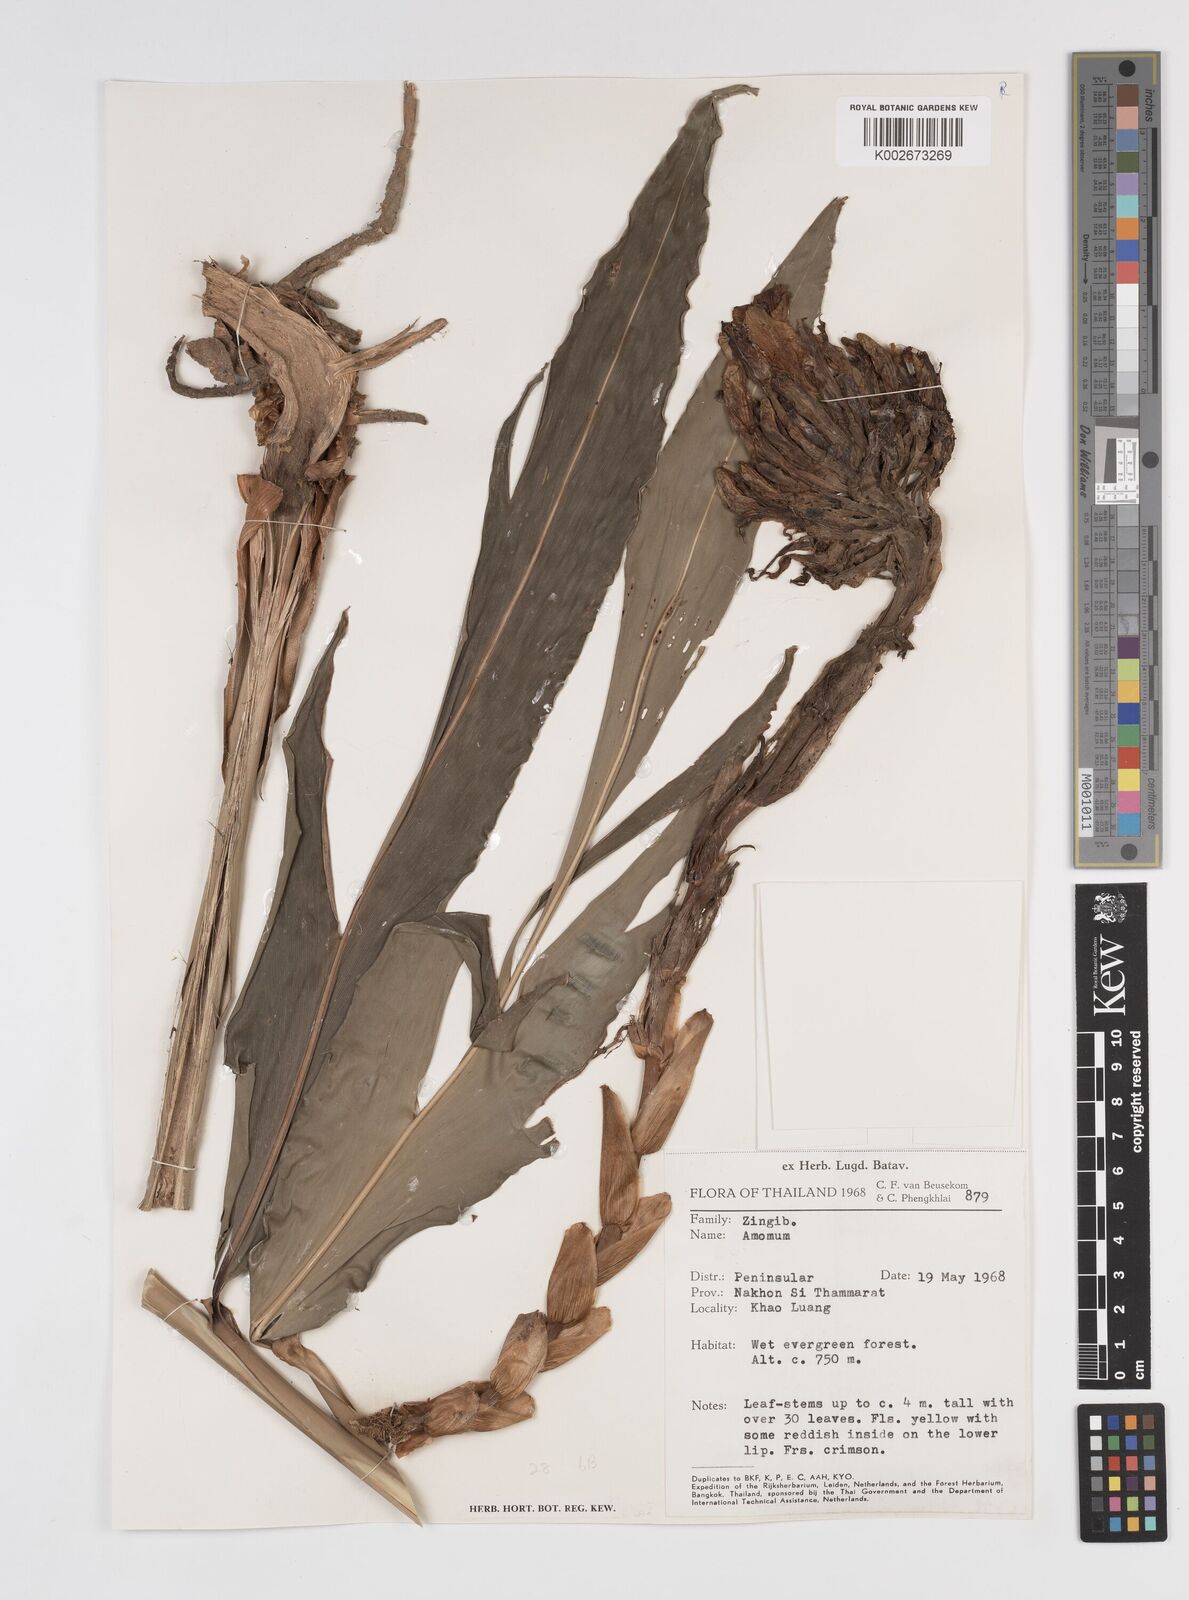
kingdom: Plantae
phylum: Tracheophyta
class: Liliopsida
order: Zingiberales
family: Zingiberaceae
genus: Amomum
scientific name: Amomum
